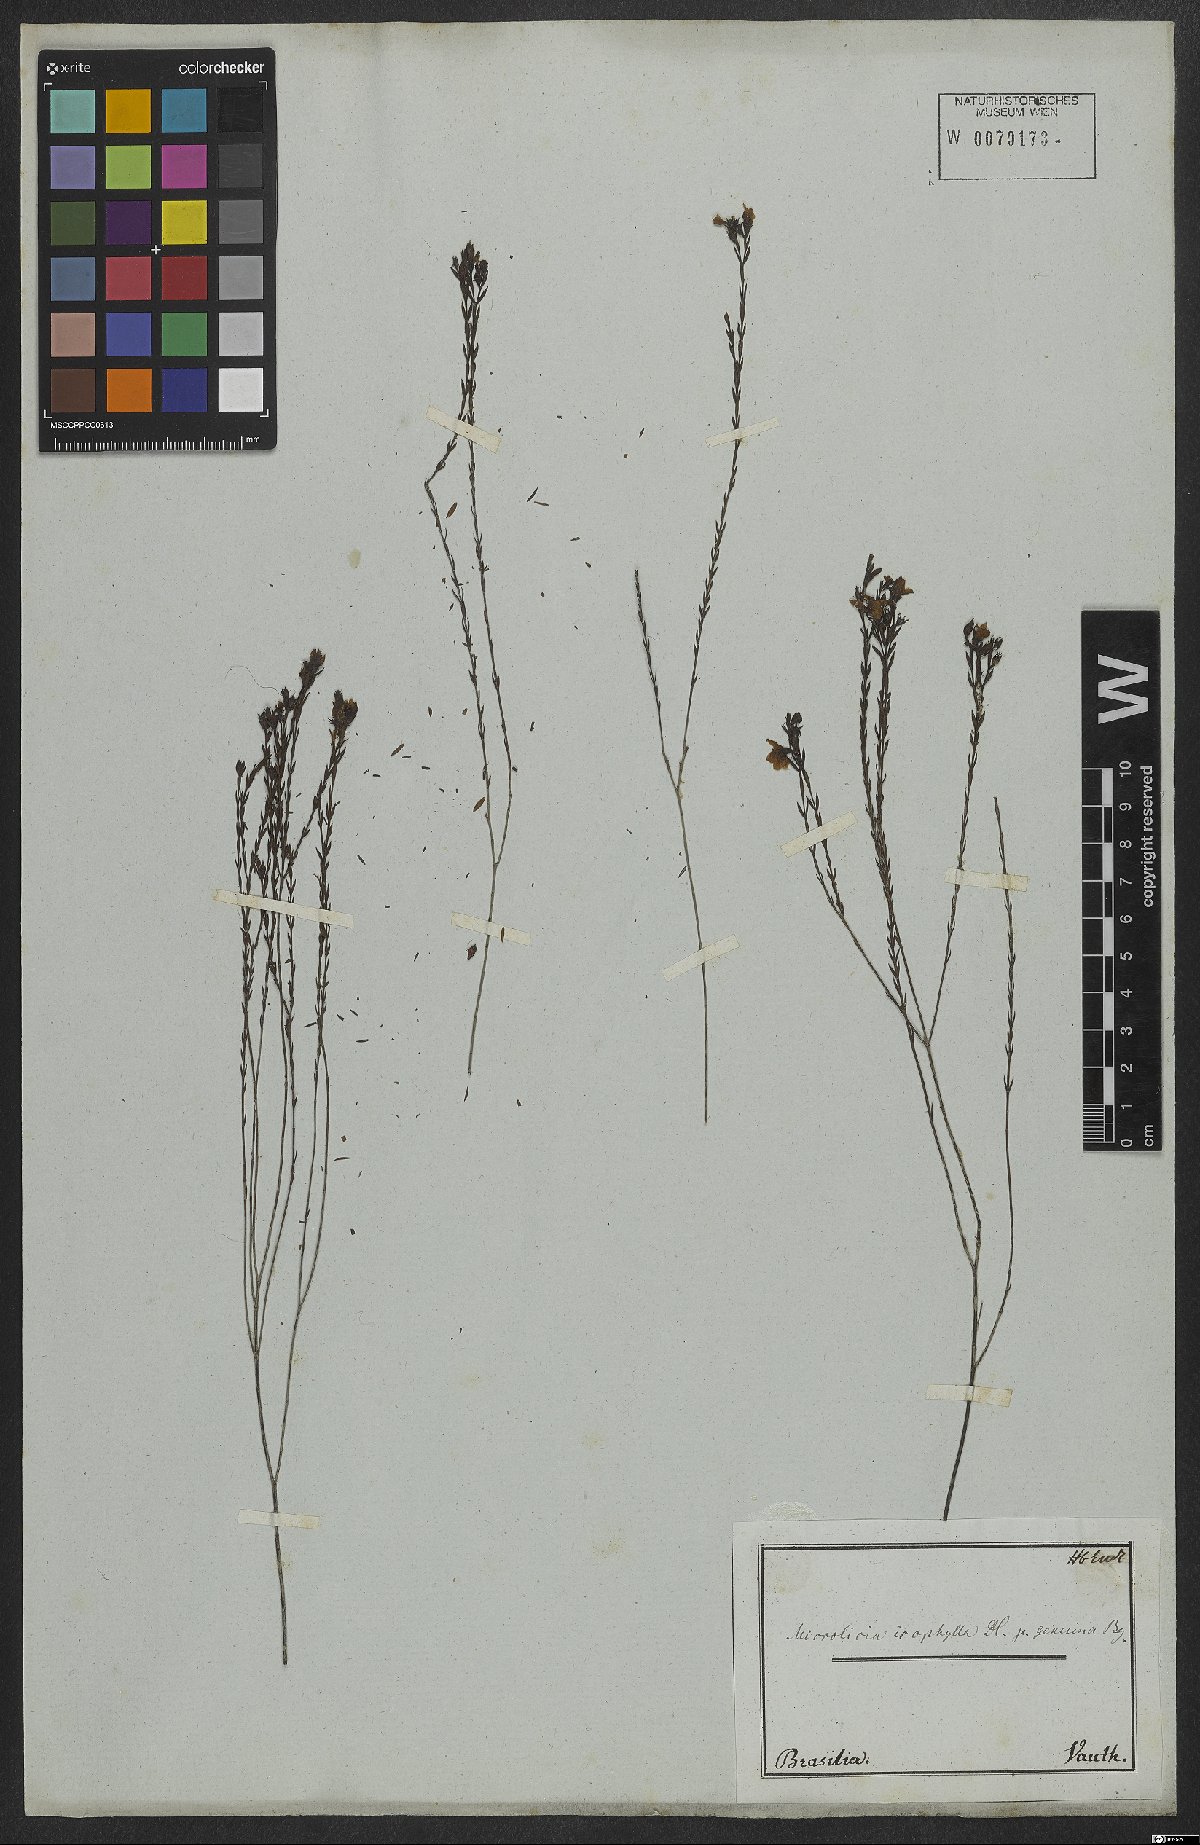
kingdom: Plantae
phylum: Tracheophyta
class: Magnoliopsida
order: Myrtales
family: Melastomataceae
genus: Microlicia
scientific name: Microlicia isophylla
